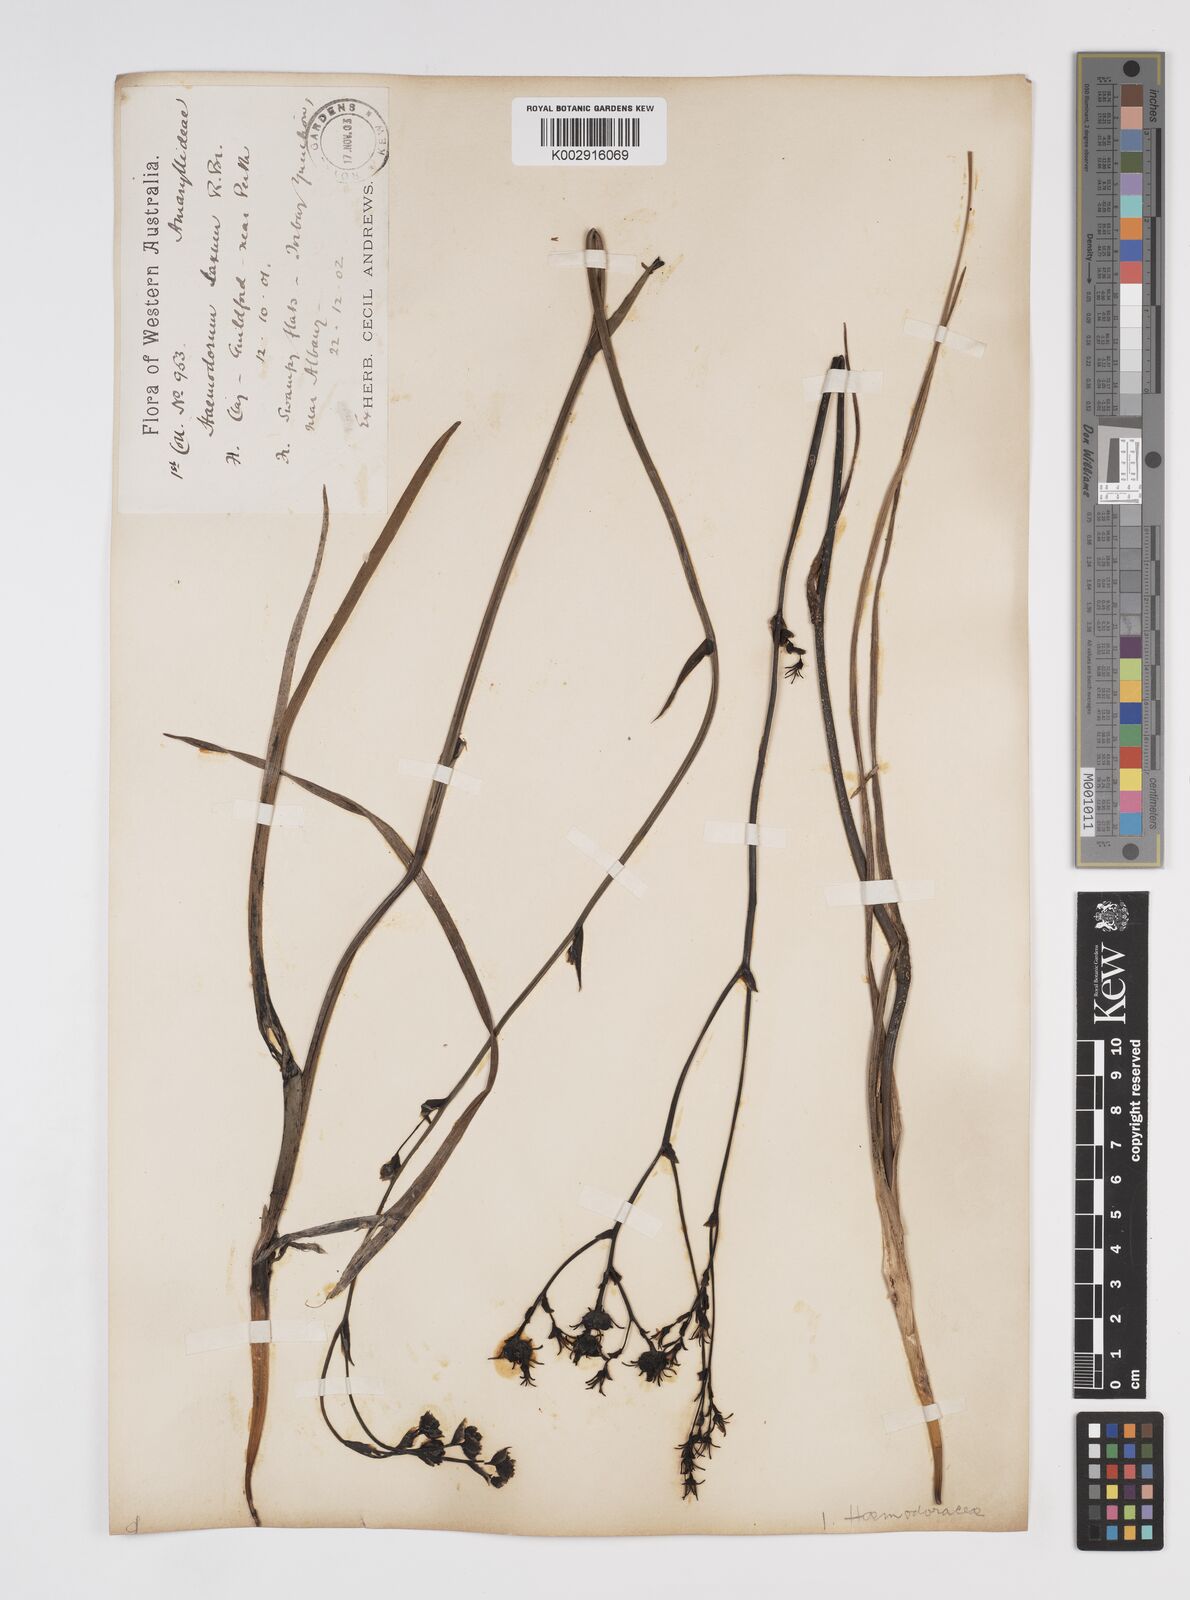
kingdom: Plantae
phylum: Tracheophyta
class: Liliopsida
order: Commelinales
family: Haemodoraceae
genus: Haemodorum
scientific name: Haemodorum laxum
